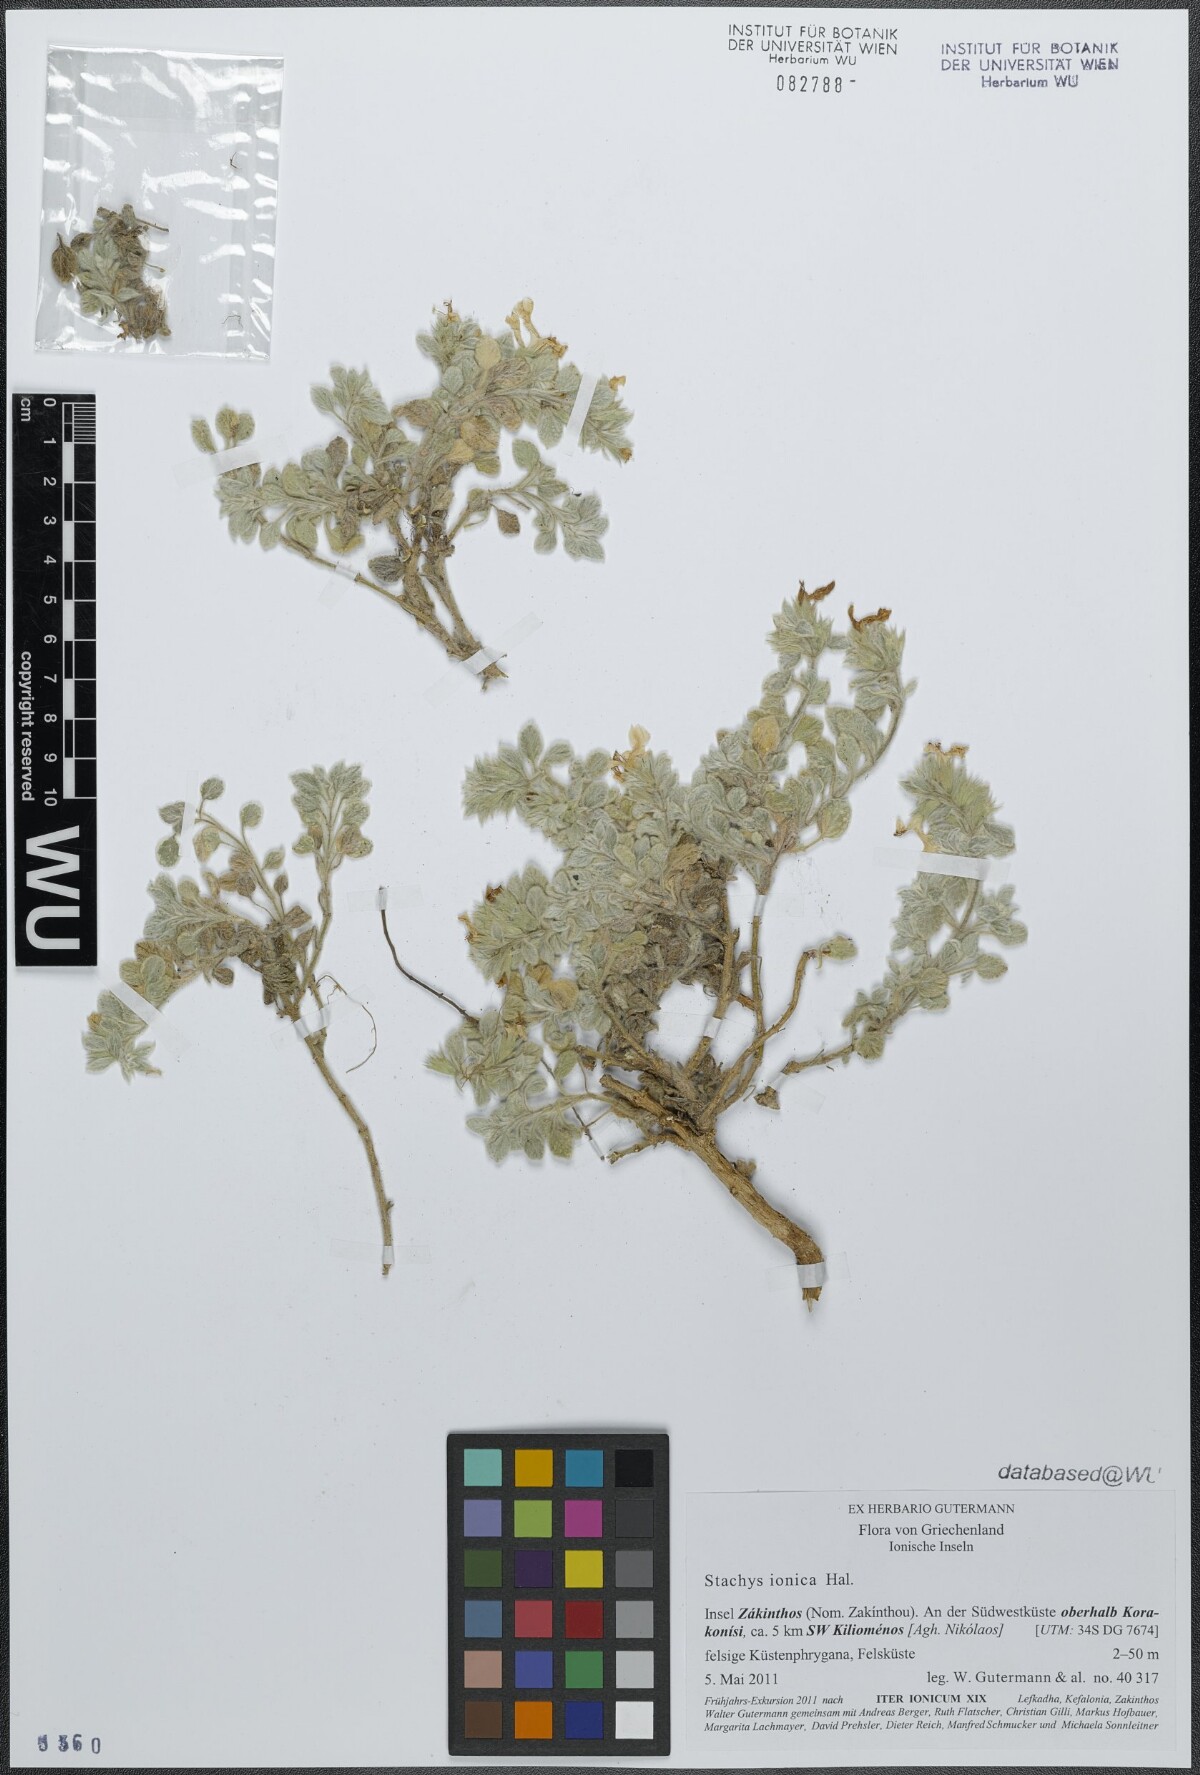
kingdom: Plantae
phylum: Tracheophyta
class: Magnoliopsida
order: Lamiales
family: Lamiaceae
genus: Stachys
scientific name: Stachys ionica
